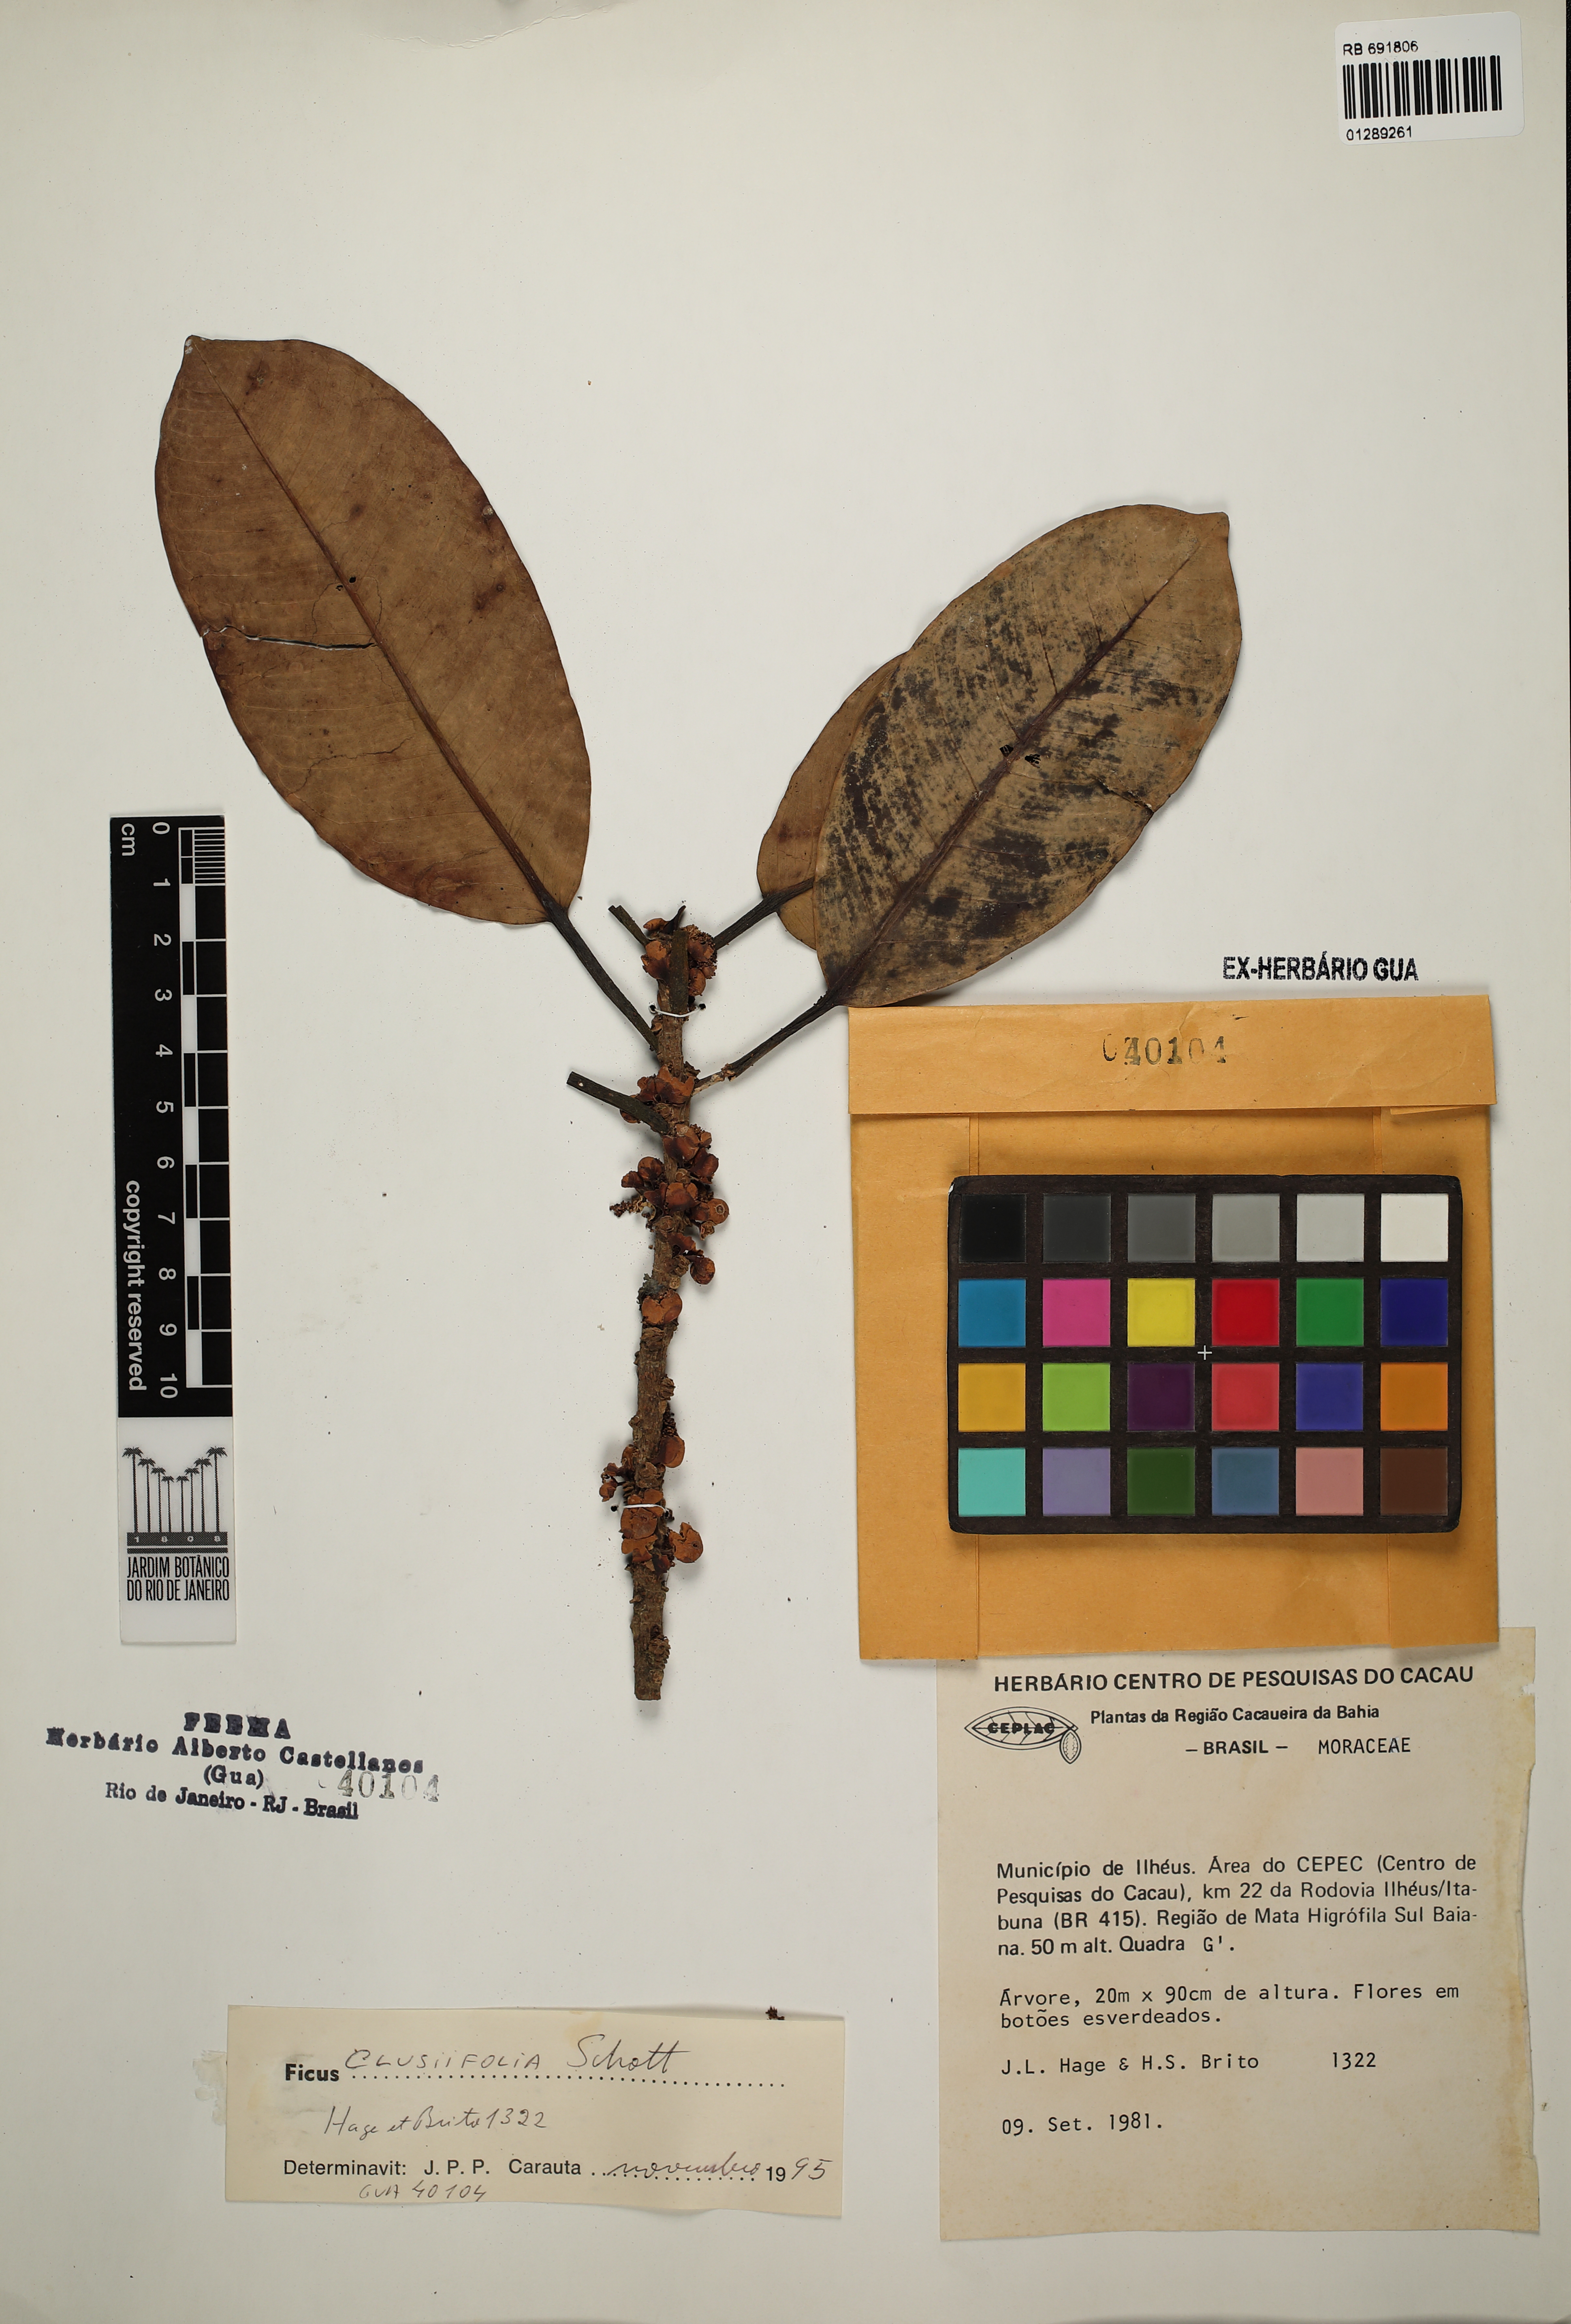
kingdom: Plantae
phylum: Tracheophyta
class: Magnoliopsida
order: Rosales
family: Moraceae
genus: Ficus
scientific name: Ficus americana
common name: Jamaican cherry fig
